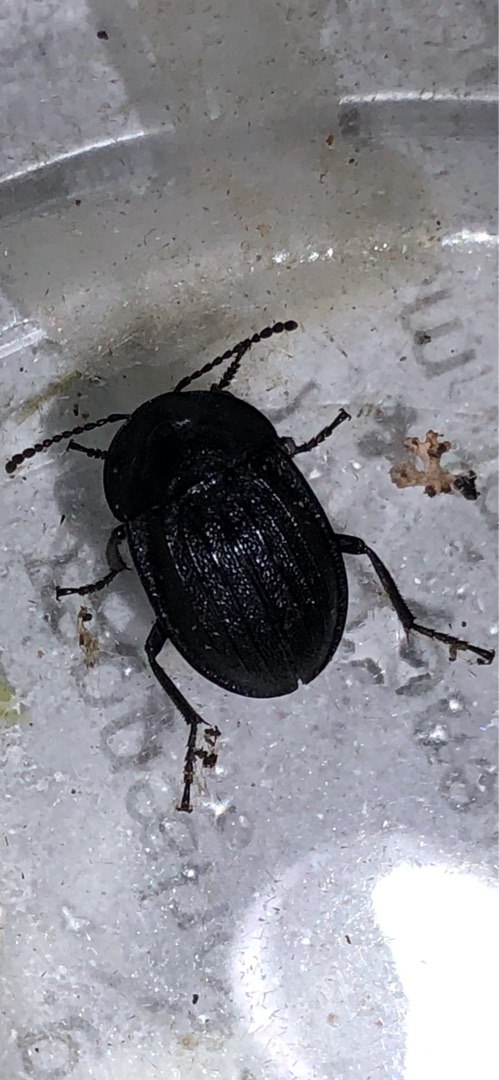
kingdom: Animalia
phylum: Arthropoda
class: Insecta
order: Coleoptera
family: Staphylinidae
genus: Silpha
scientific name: Silpha atrata
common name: Snegleådselbille
